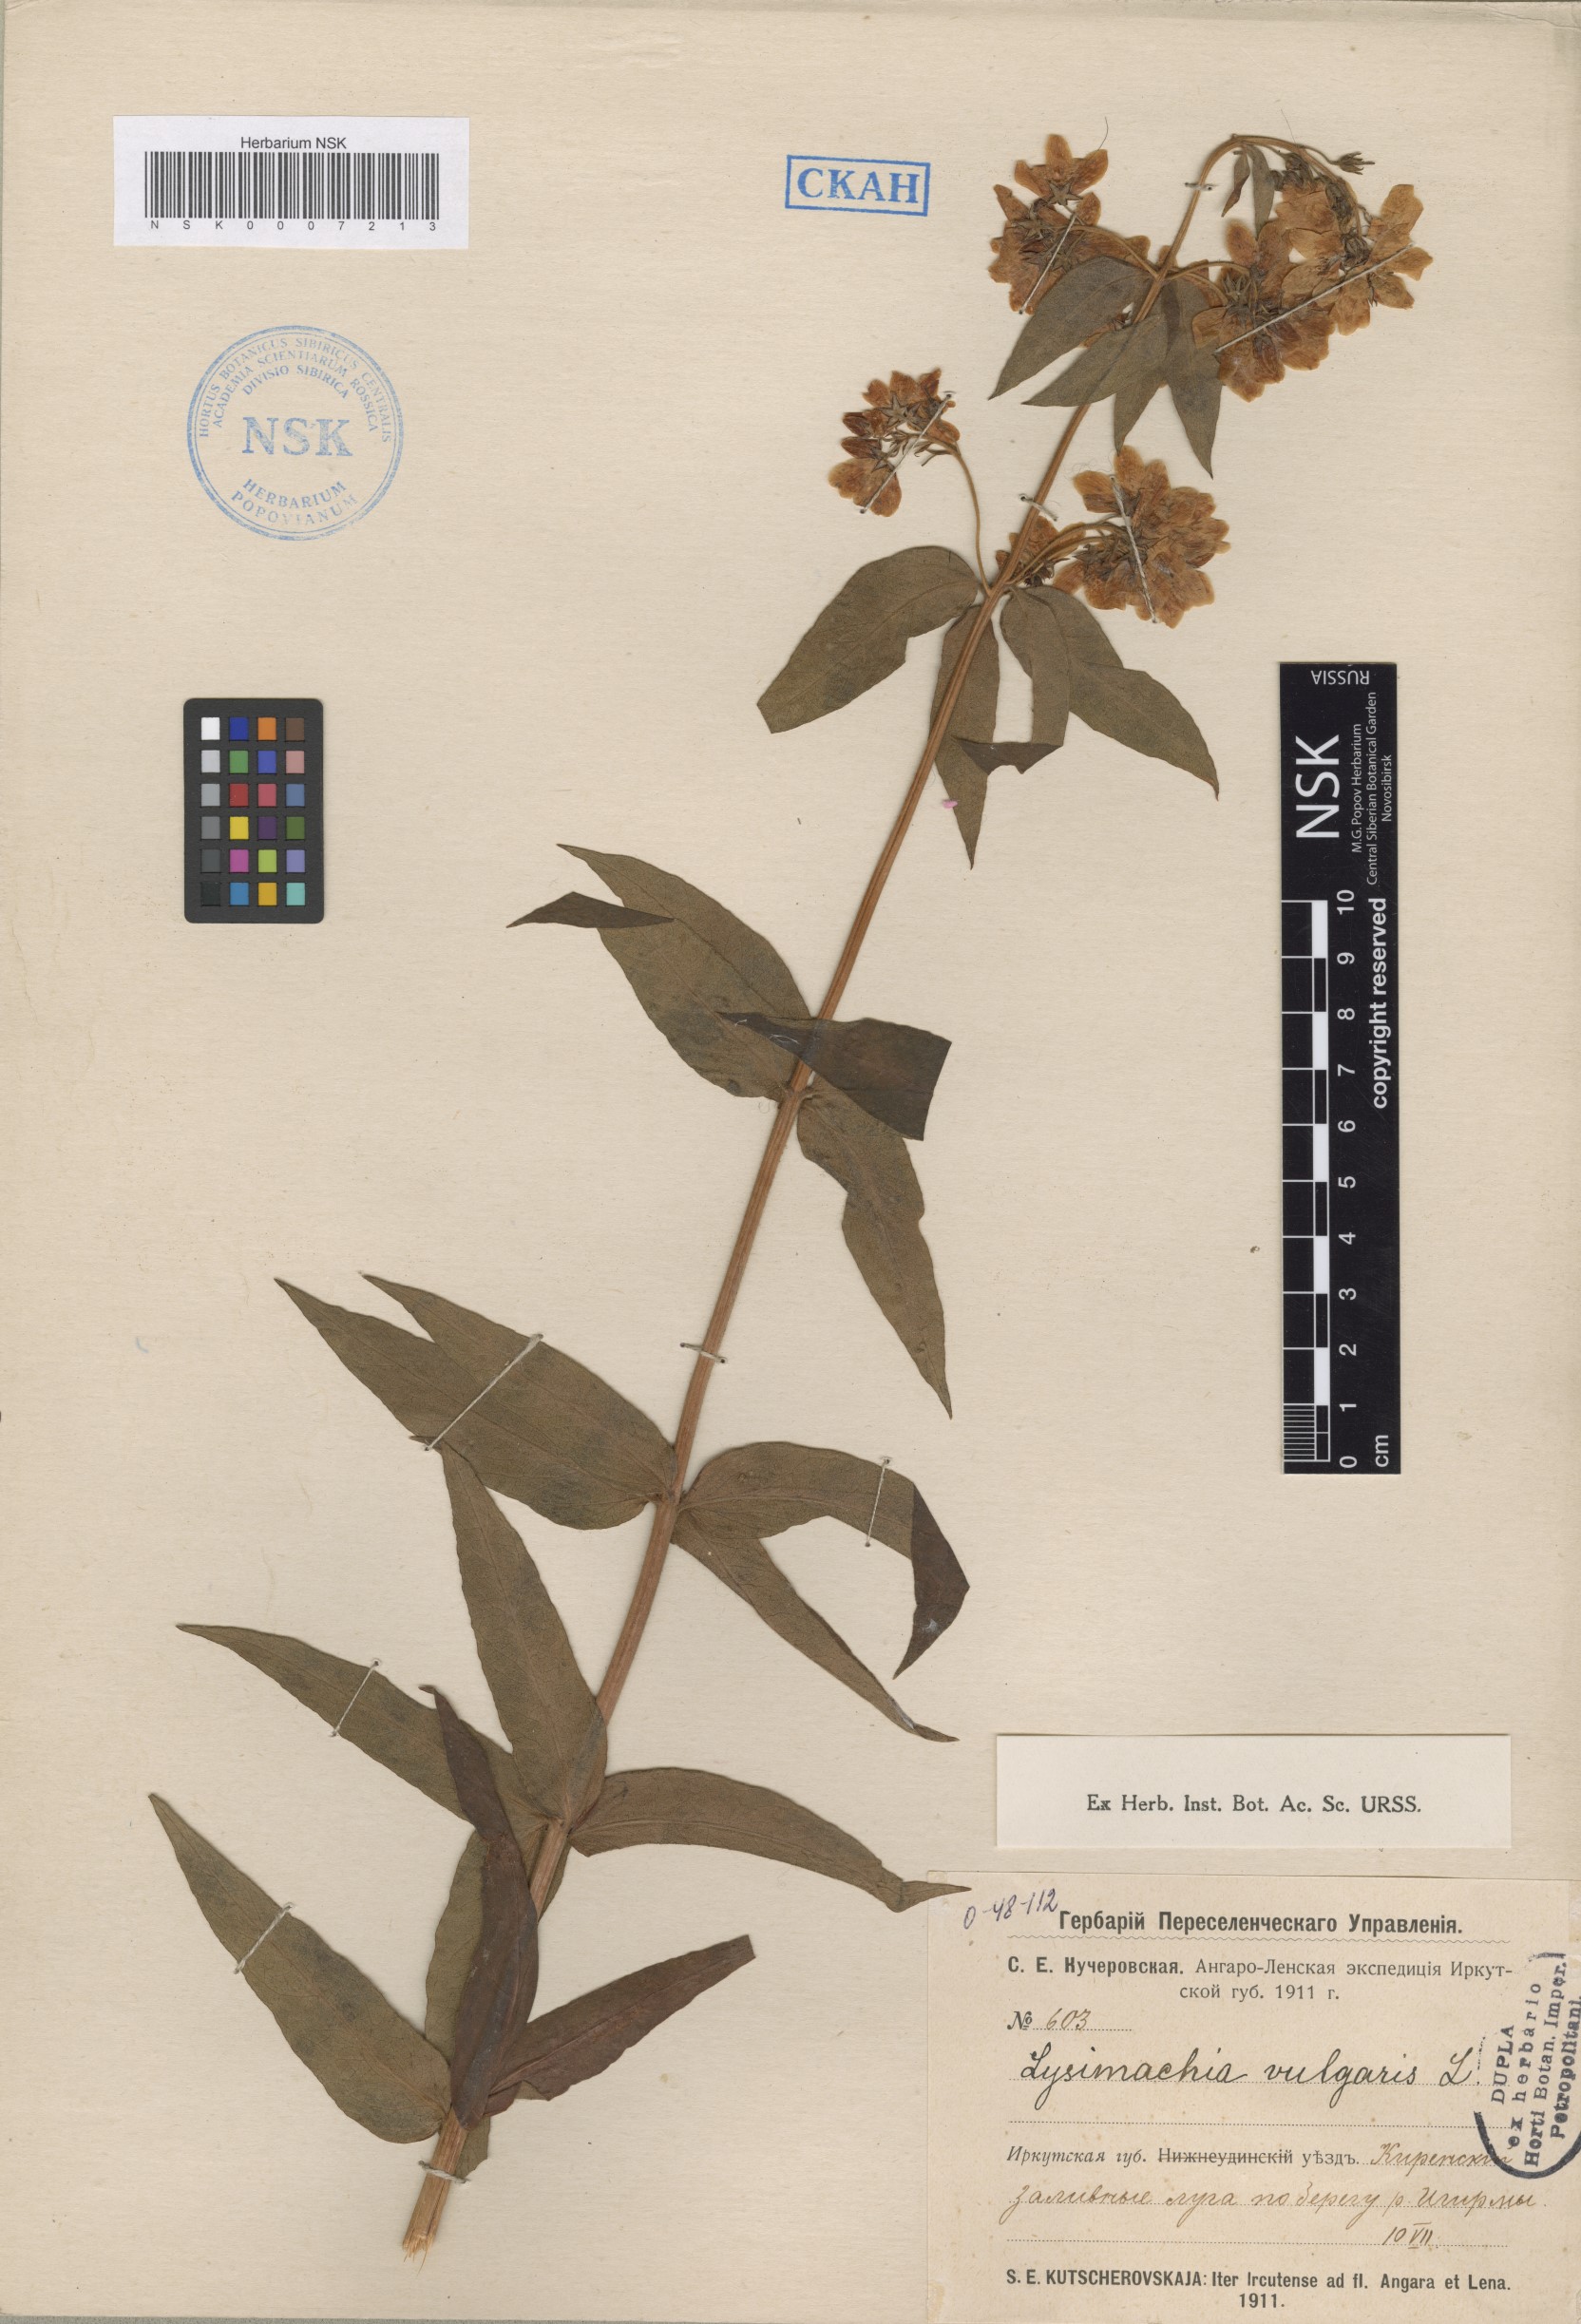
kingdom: Plantae
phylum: Tracheophyta
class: Magnoliopsida
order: Ericales
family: Primulaceae
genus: Lysimachia
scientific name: Lysimachia vulgaris
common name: Yellow loosestrife
